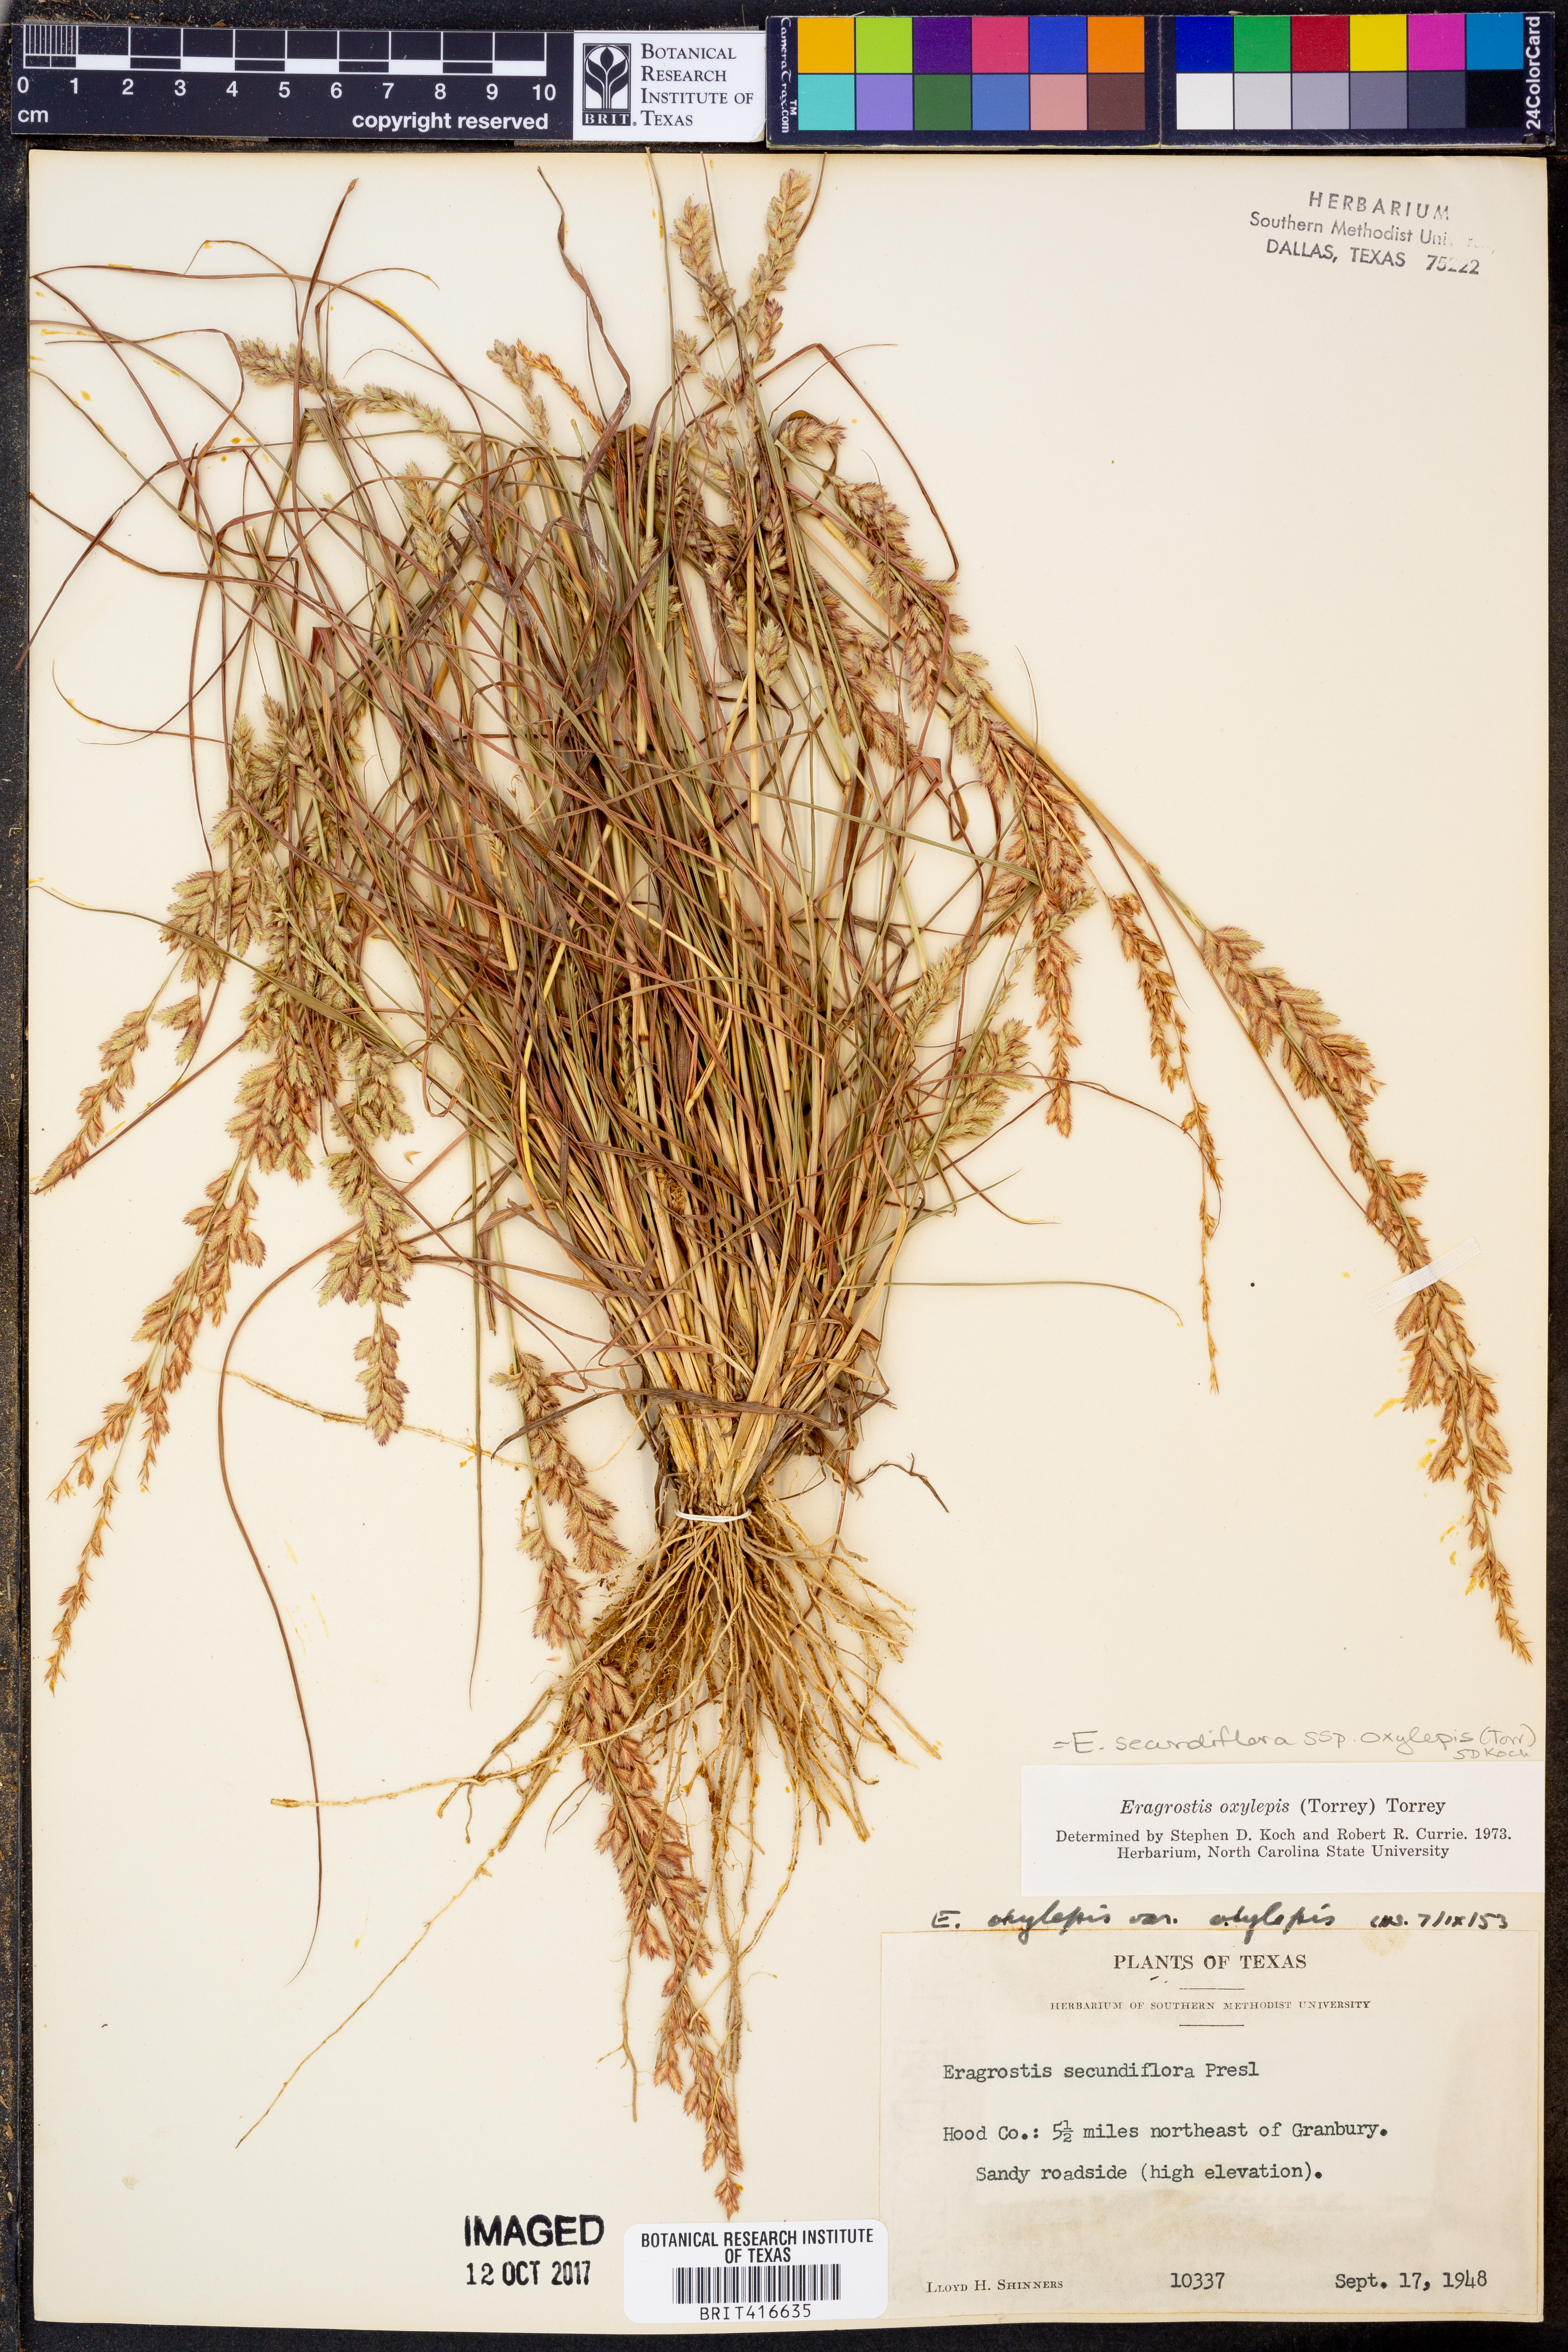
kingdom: Plantae
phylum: Tracheophyta
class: Liliopsida
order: Poales
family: Poaceae
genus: Eragrostis
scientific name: Eragrostis secundiflora
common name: Red love grass
